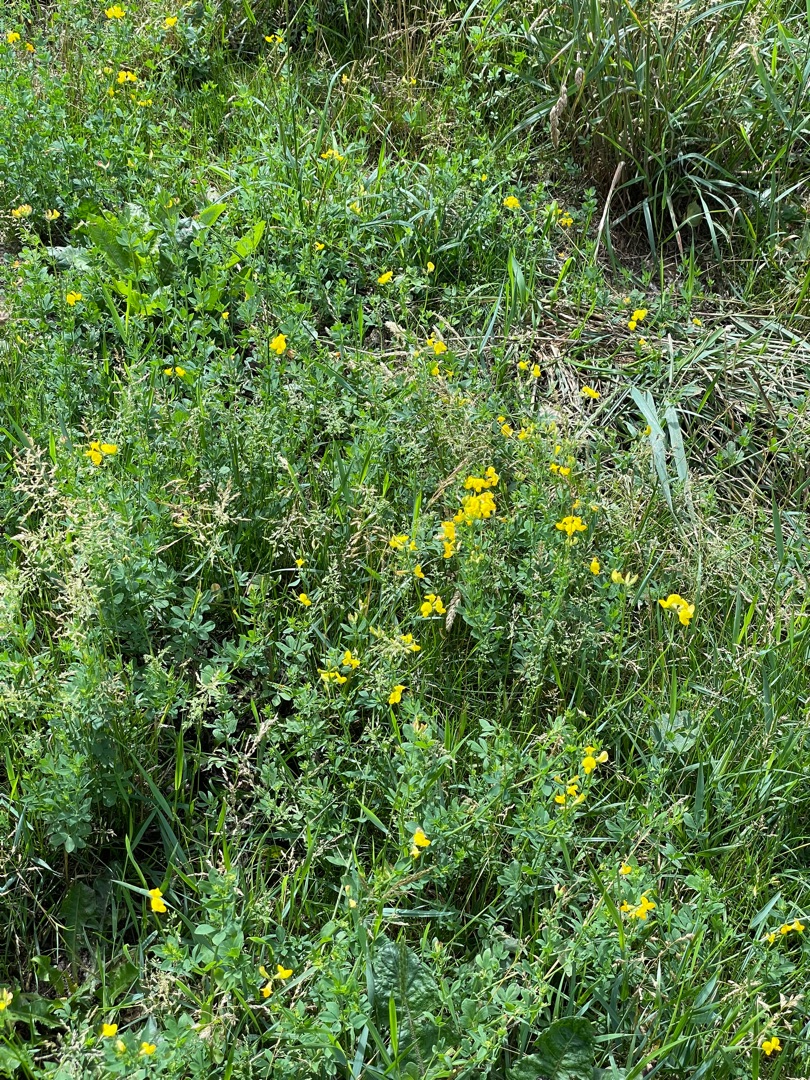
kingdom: Plantae
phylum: Tracheophyta
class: Magnoliopsida
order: Fabales
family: Fabaceae
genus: Lotus
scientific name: Lotus corniculatus
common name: Almindelig kællingetand
